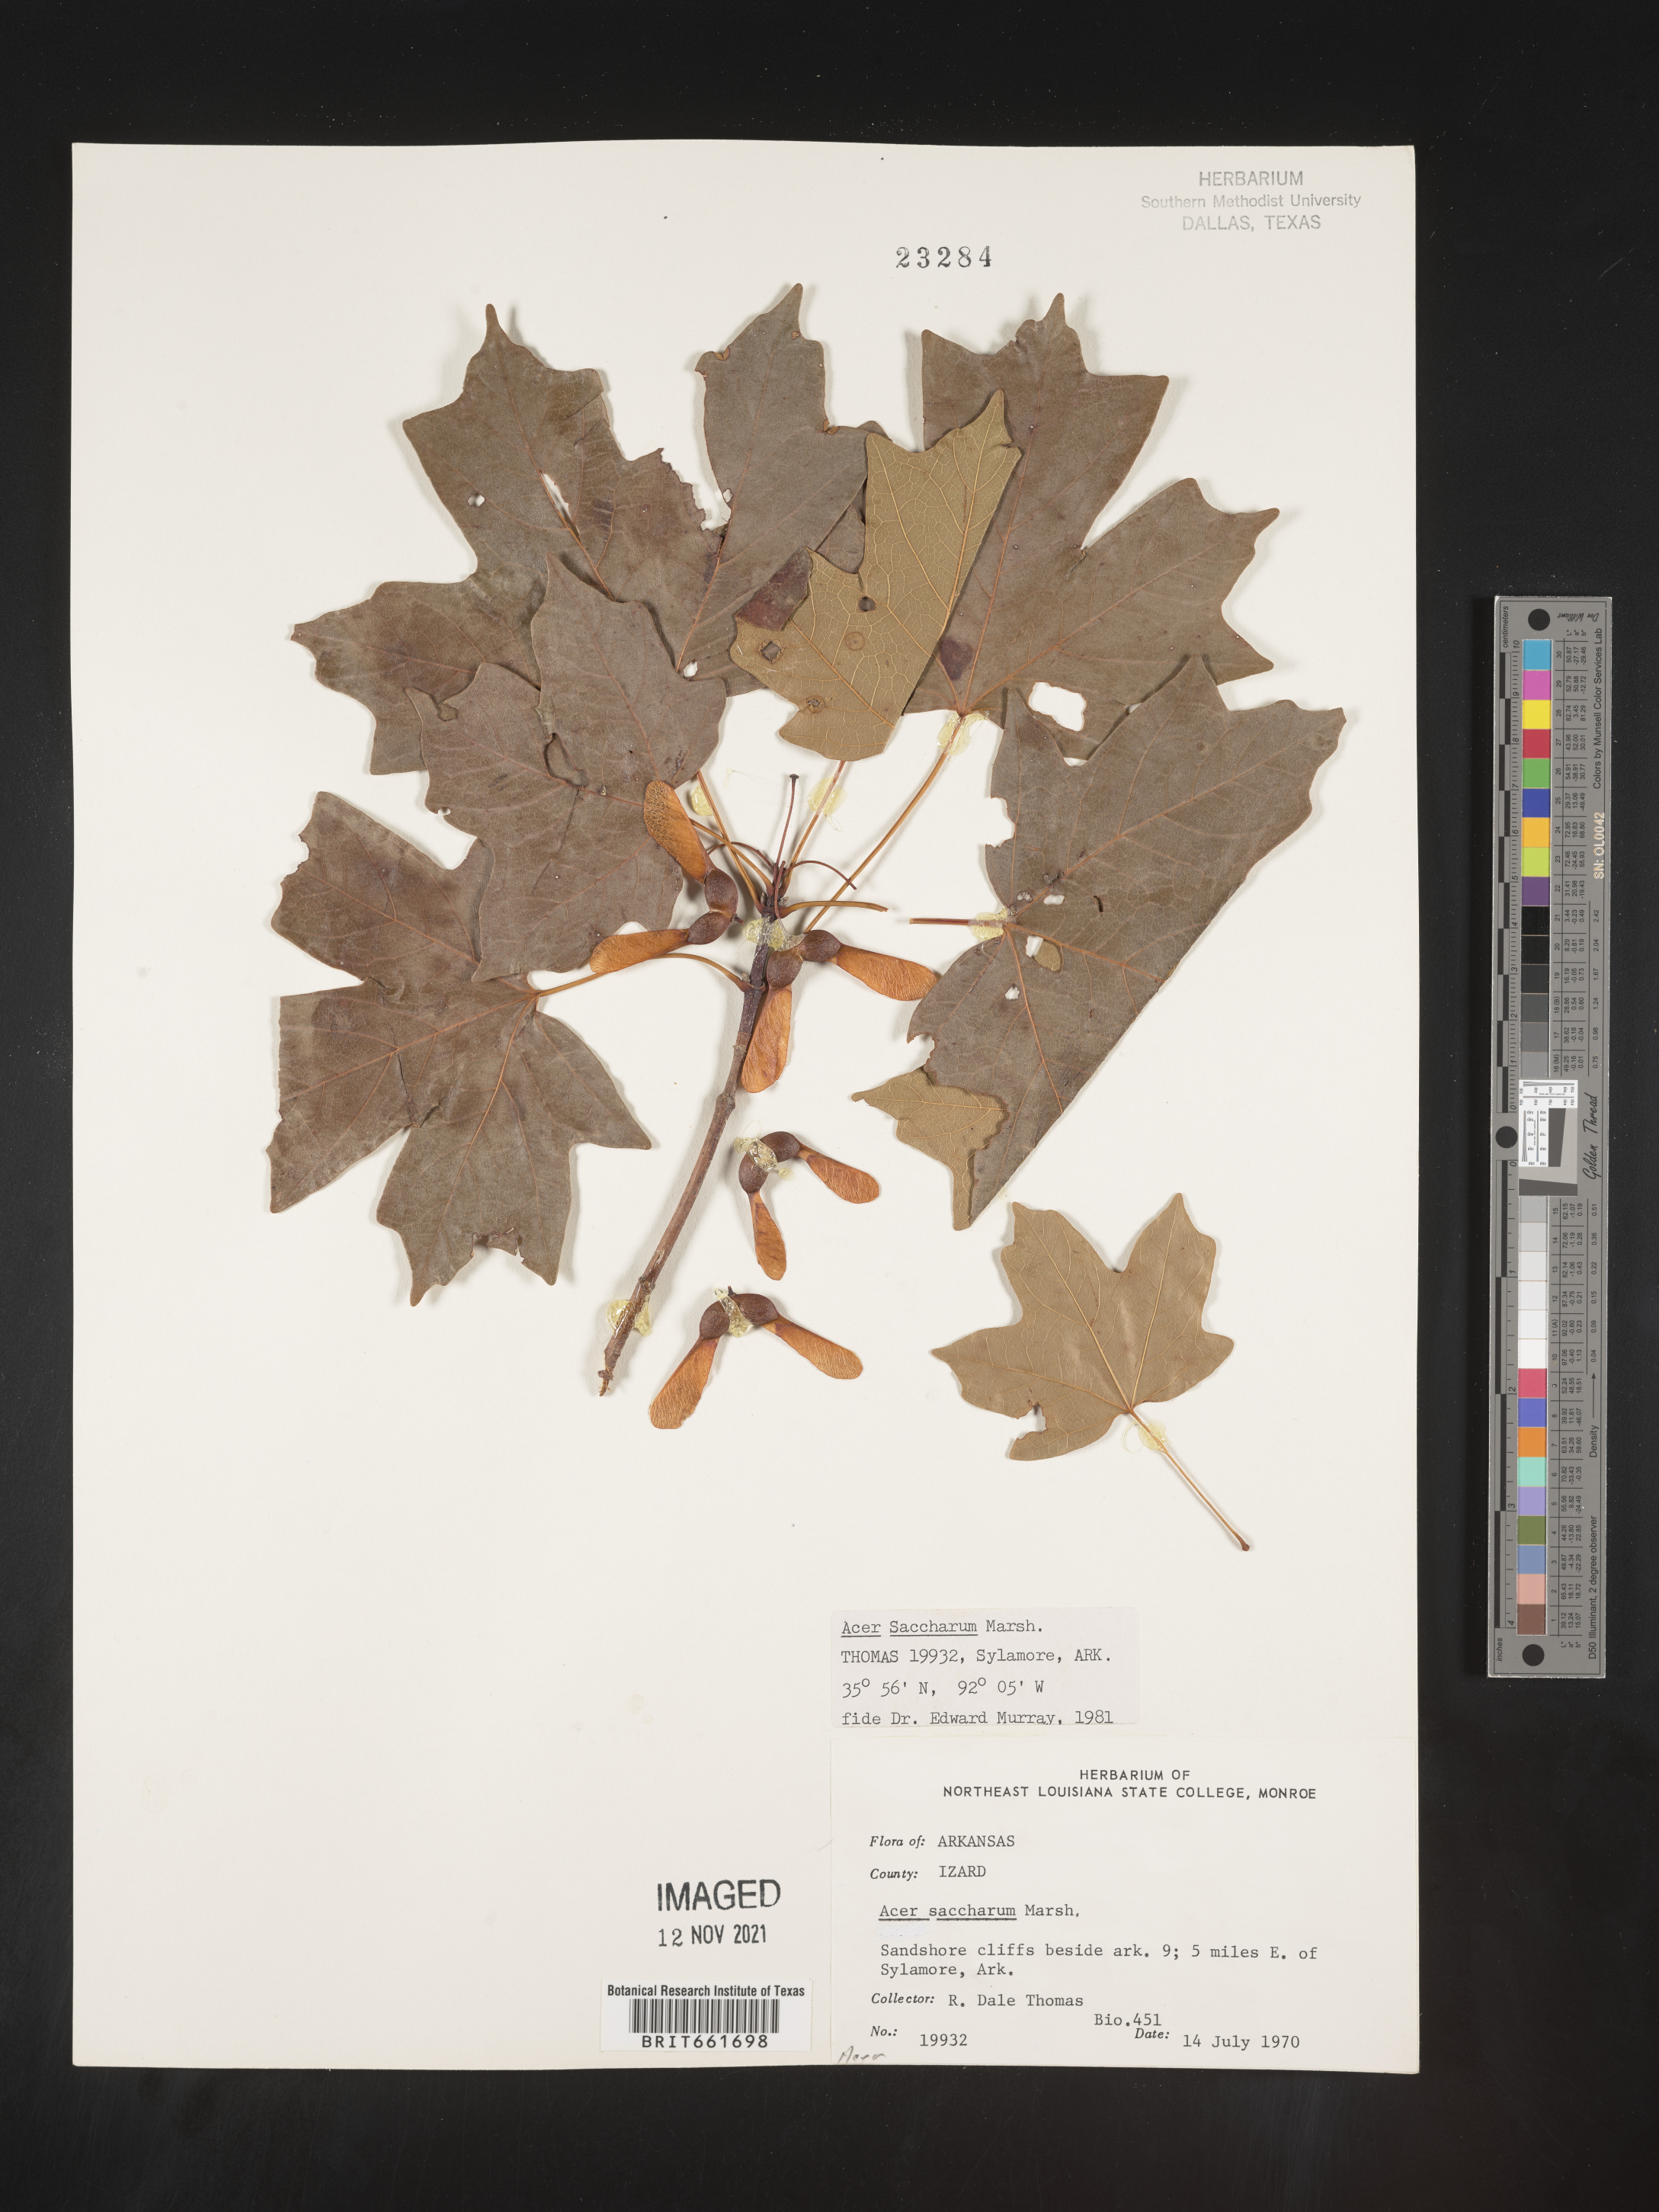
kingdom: Plantae
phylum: Tracheophyta
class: Magnoliopsida
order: Sapindales
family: Sapindaceae
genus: Acer
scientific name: Acer saccharum
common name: Sugar maple
